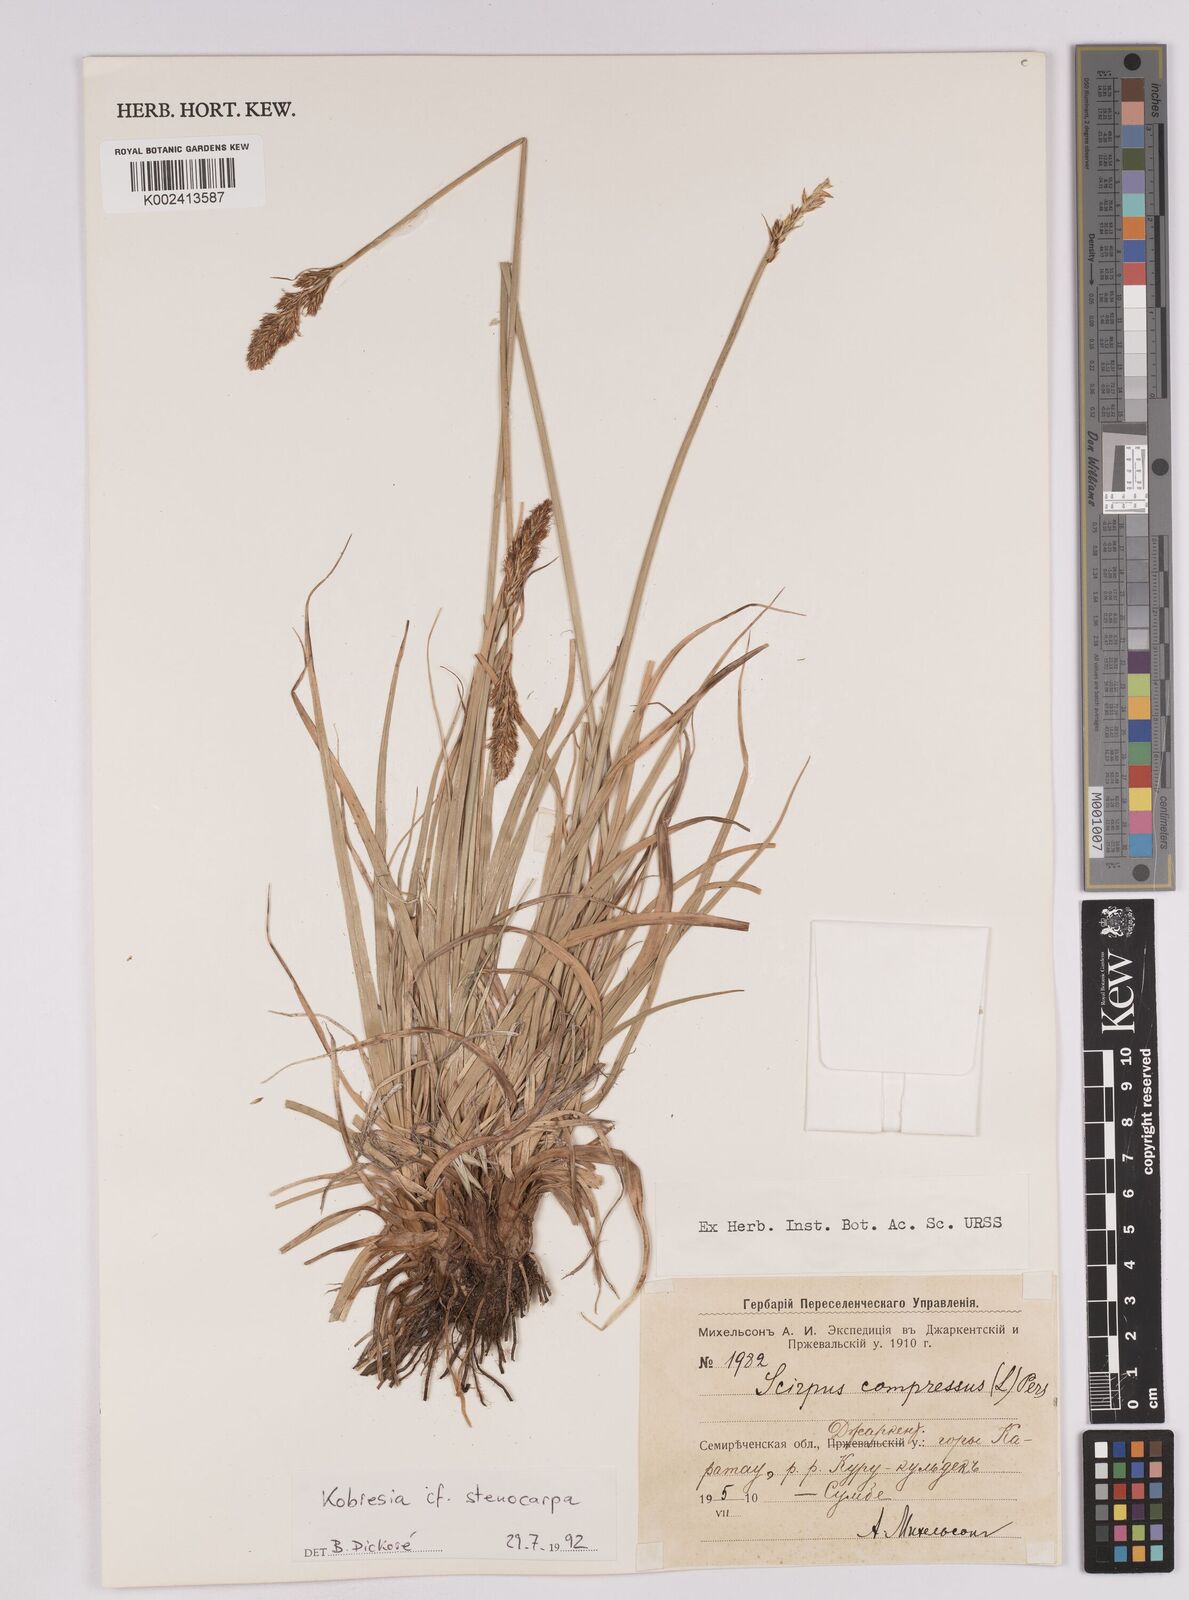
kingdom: Plantae
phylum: Tracheophyta
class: Liliopsida
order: Poales
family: Cyperaceae
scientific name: Cyperaceae
